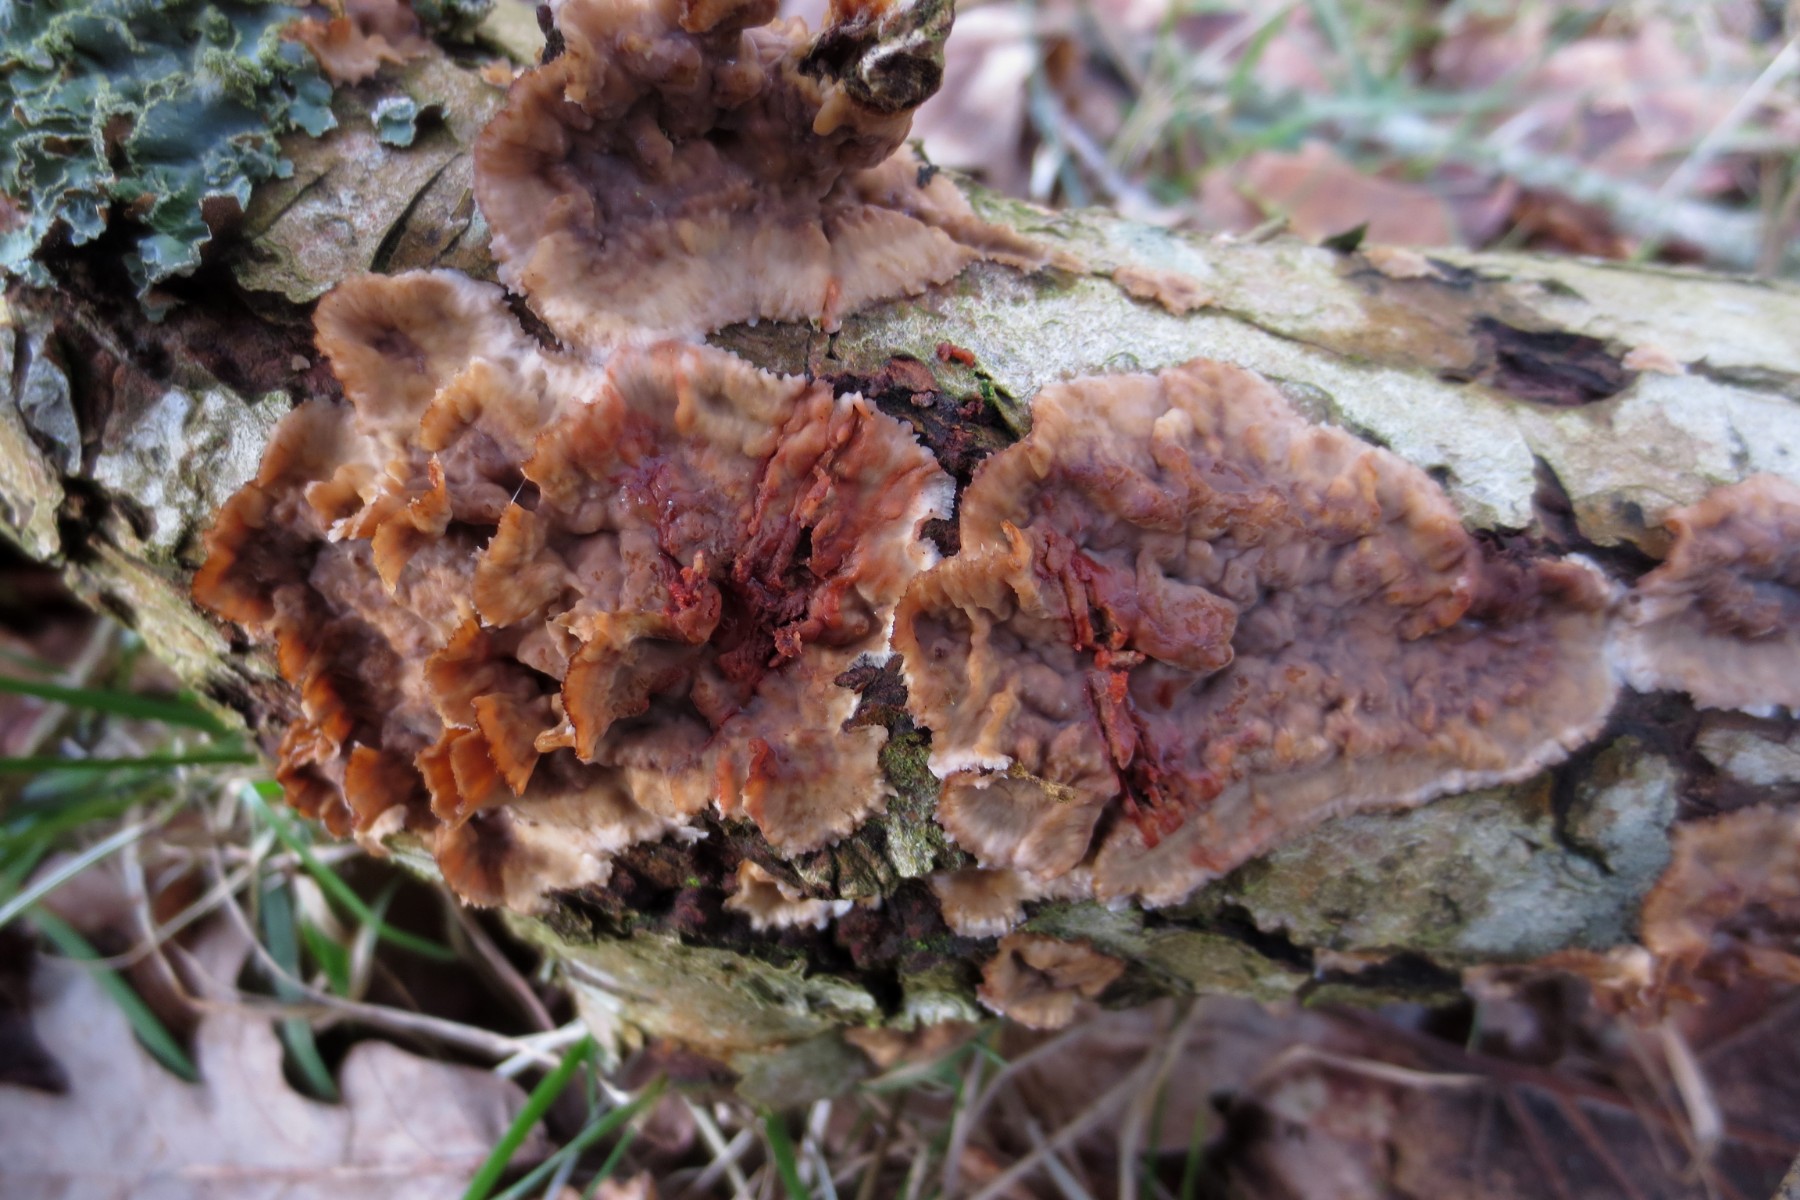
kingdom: Fungi
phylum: Basidiomycota
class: Agaricomycetes
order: Russulales
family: Stereaceae
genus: Stereum
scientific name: Stereum gausapatum
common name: tynd lædersvamp
